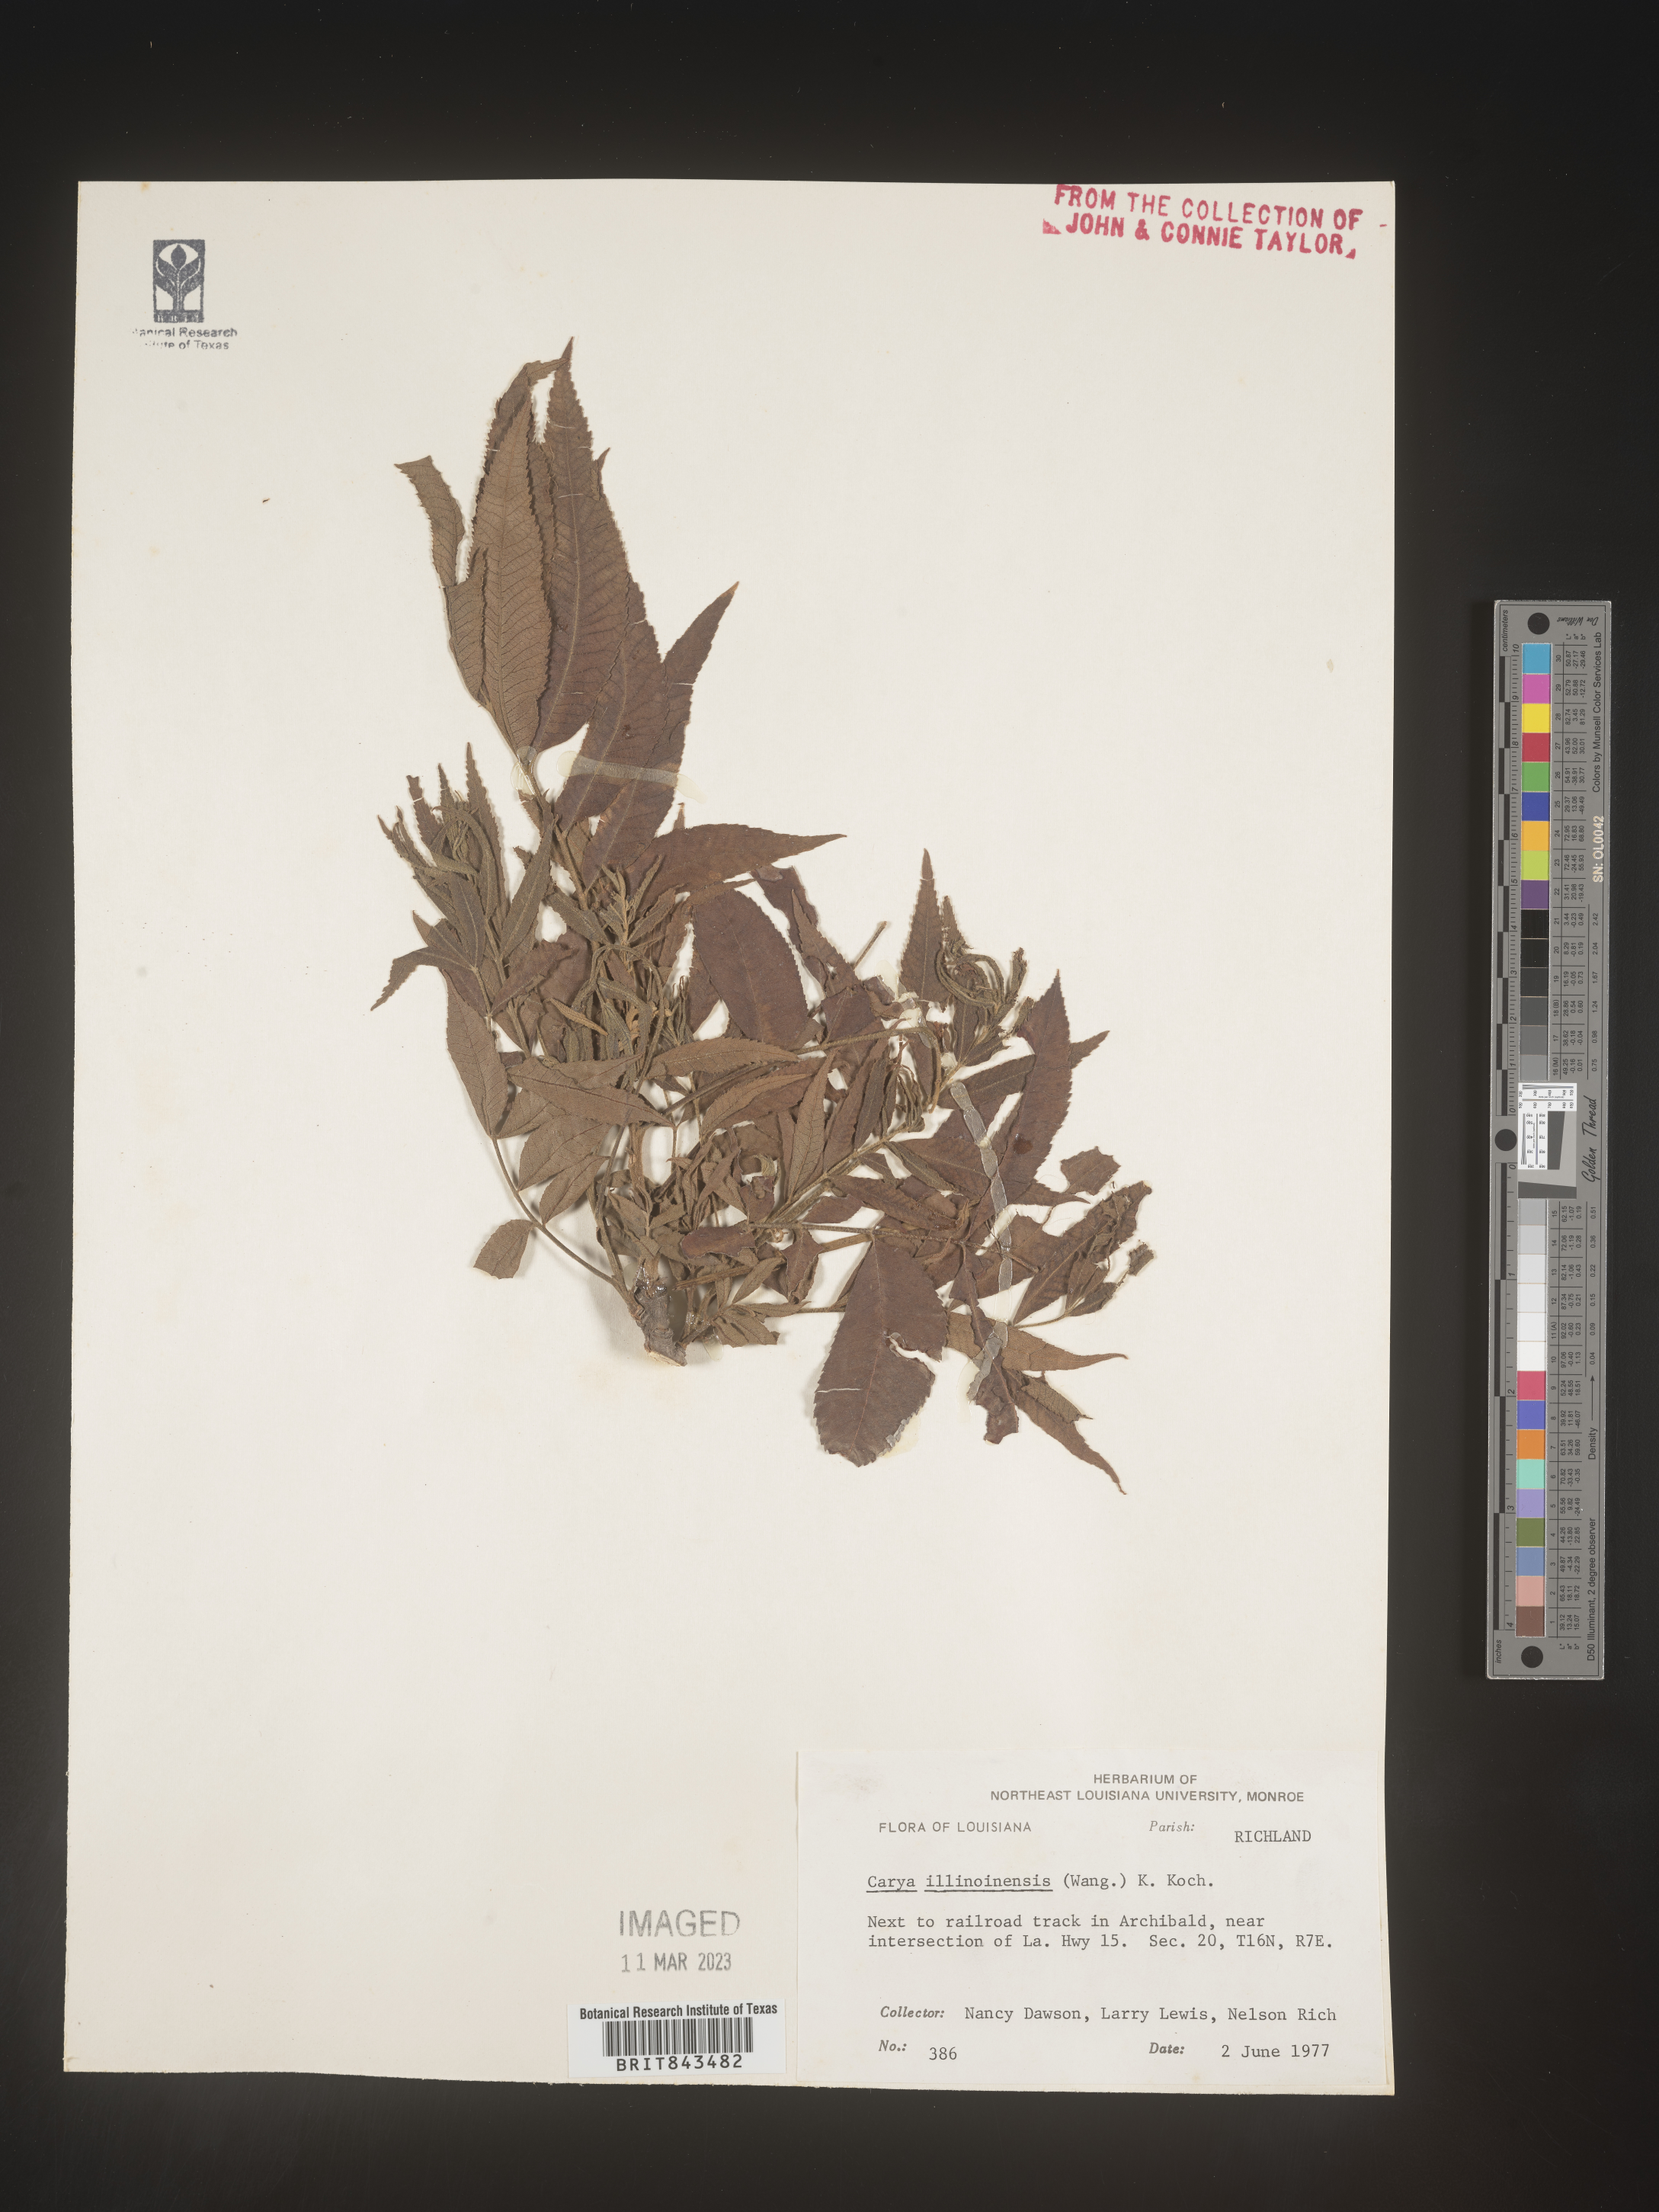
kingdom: Plantae
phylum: Tracheophyta
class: Magnoliopsida
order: Fagales
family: Juglandaceae
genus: Carya
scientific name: Carya illinoinensis
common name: Pecan
